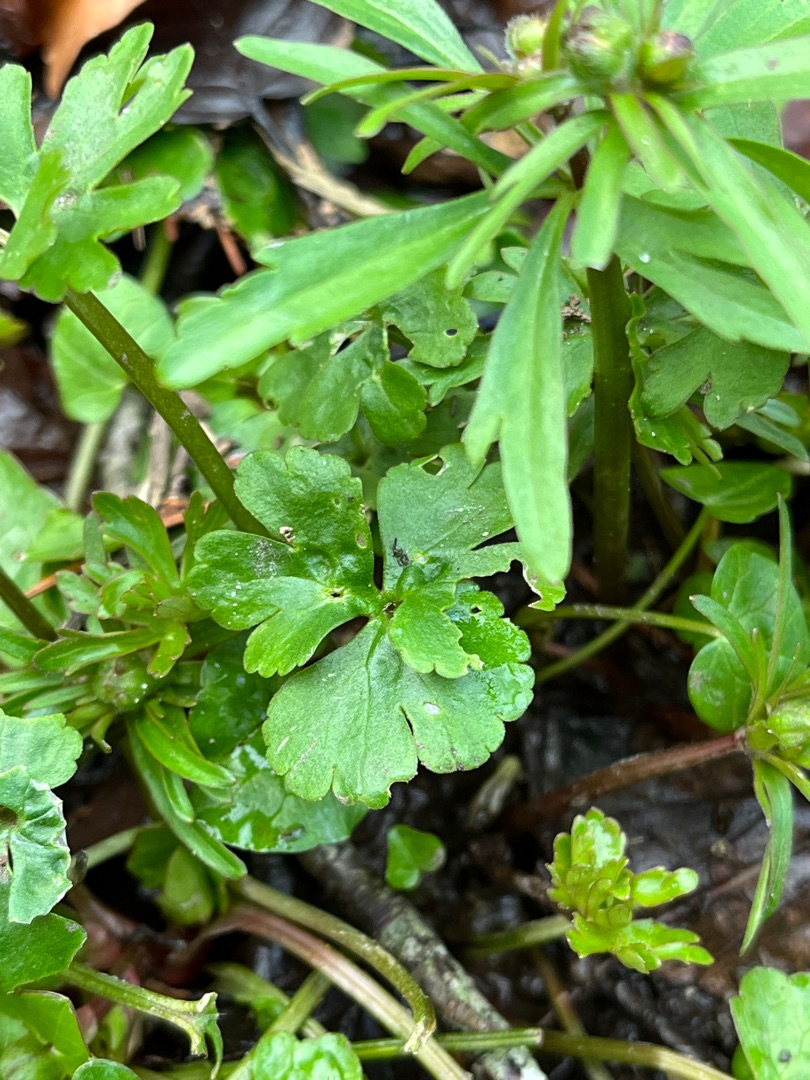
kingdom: Plantae
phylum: Tracheophyta
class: Magnoliopsida
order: Ranunculales
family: Ranunculaceae
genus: Ranunculus
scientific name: Ranunculus auricomus
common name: Nyrebladet ranunkel
